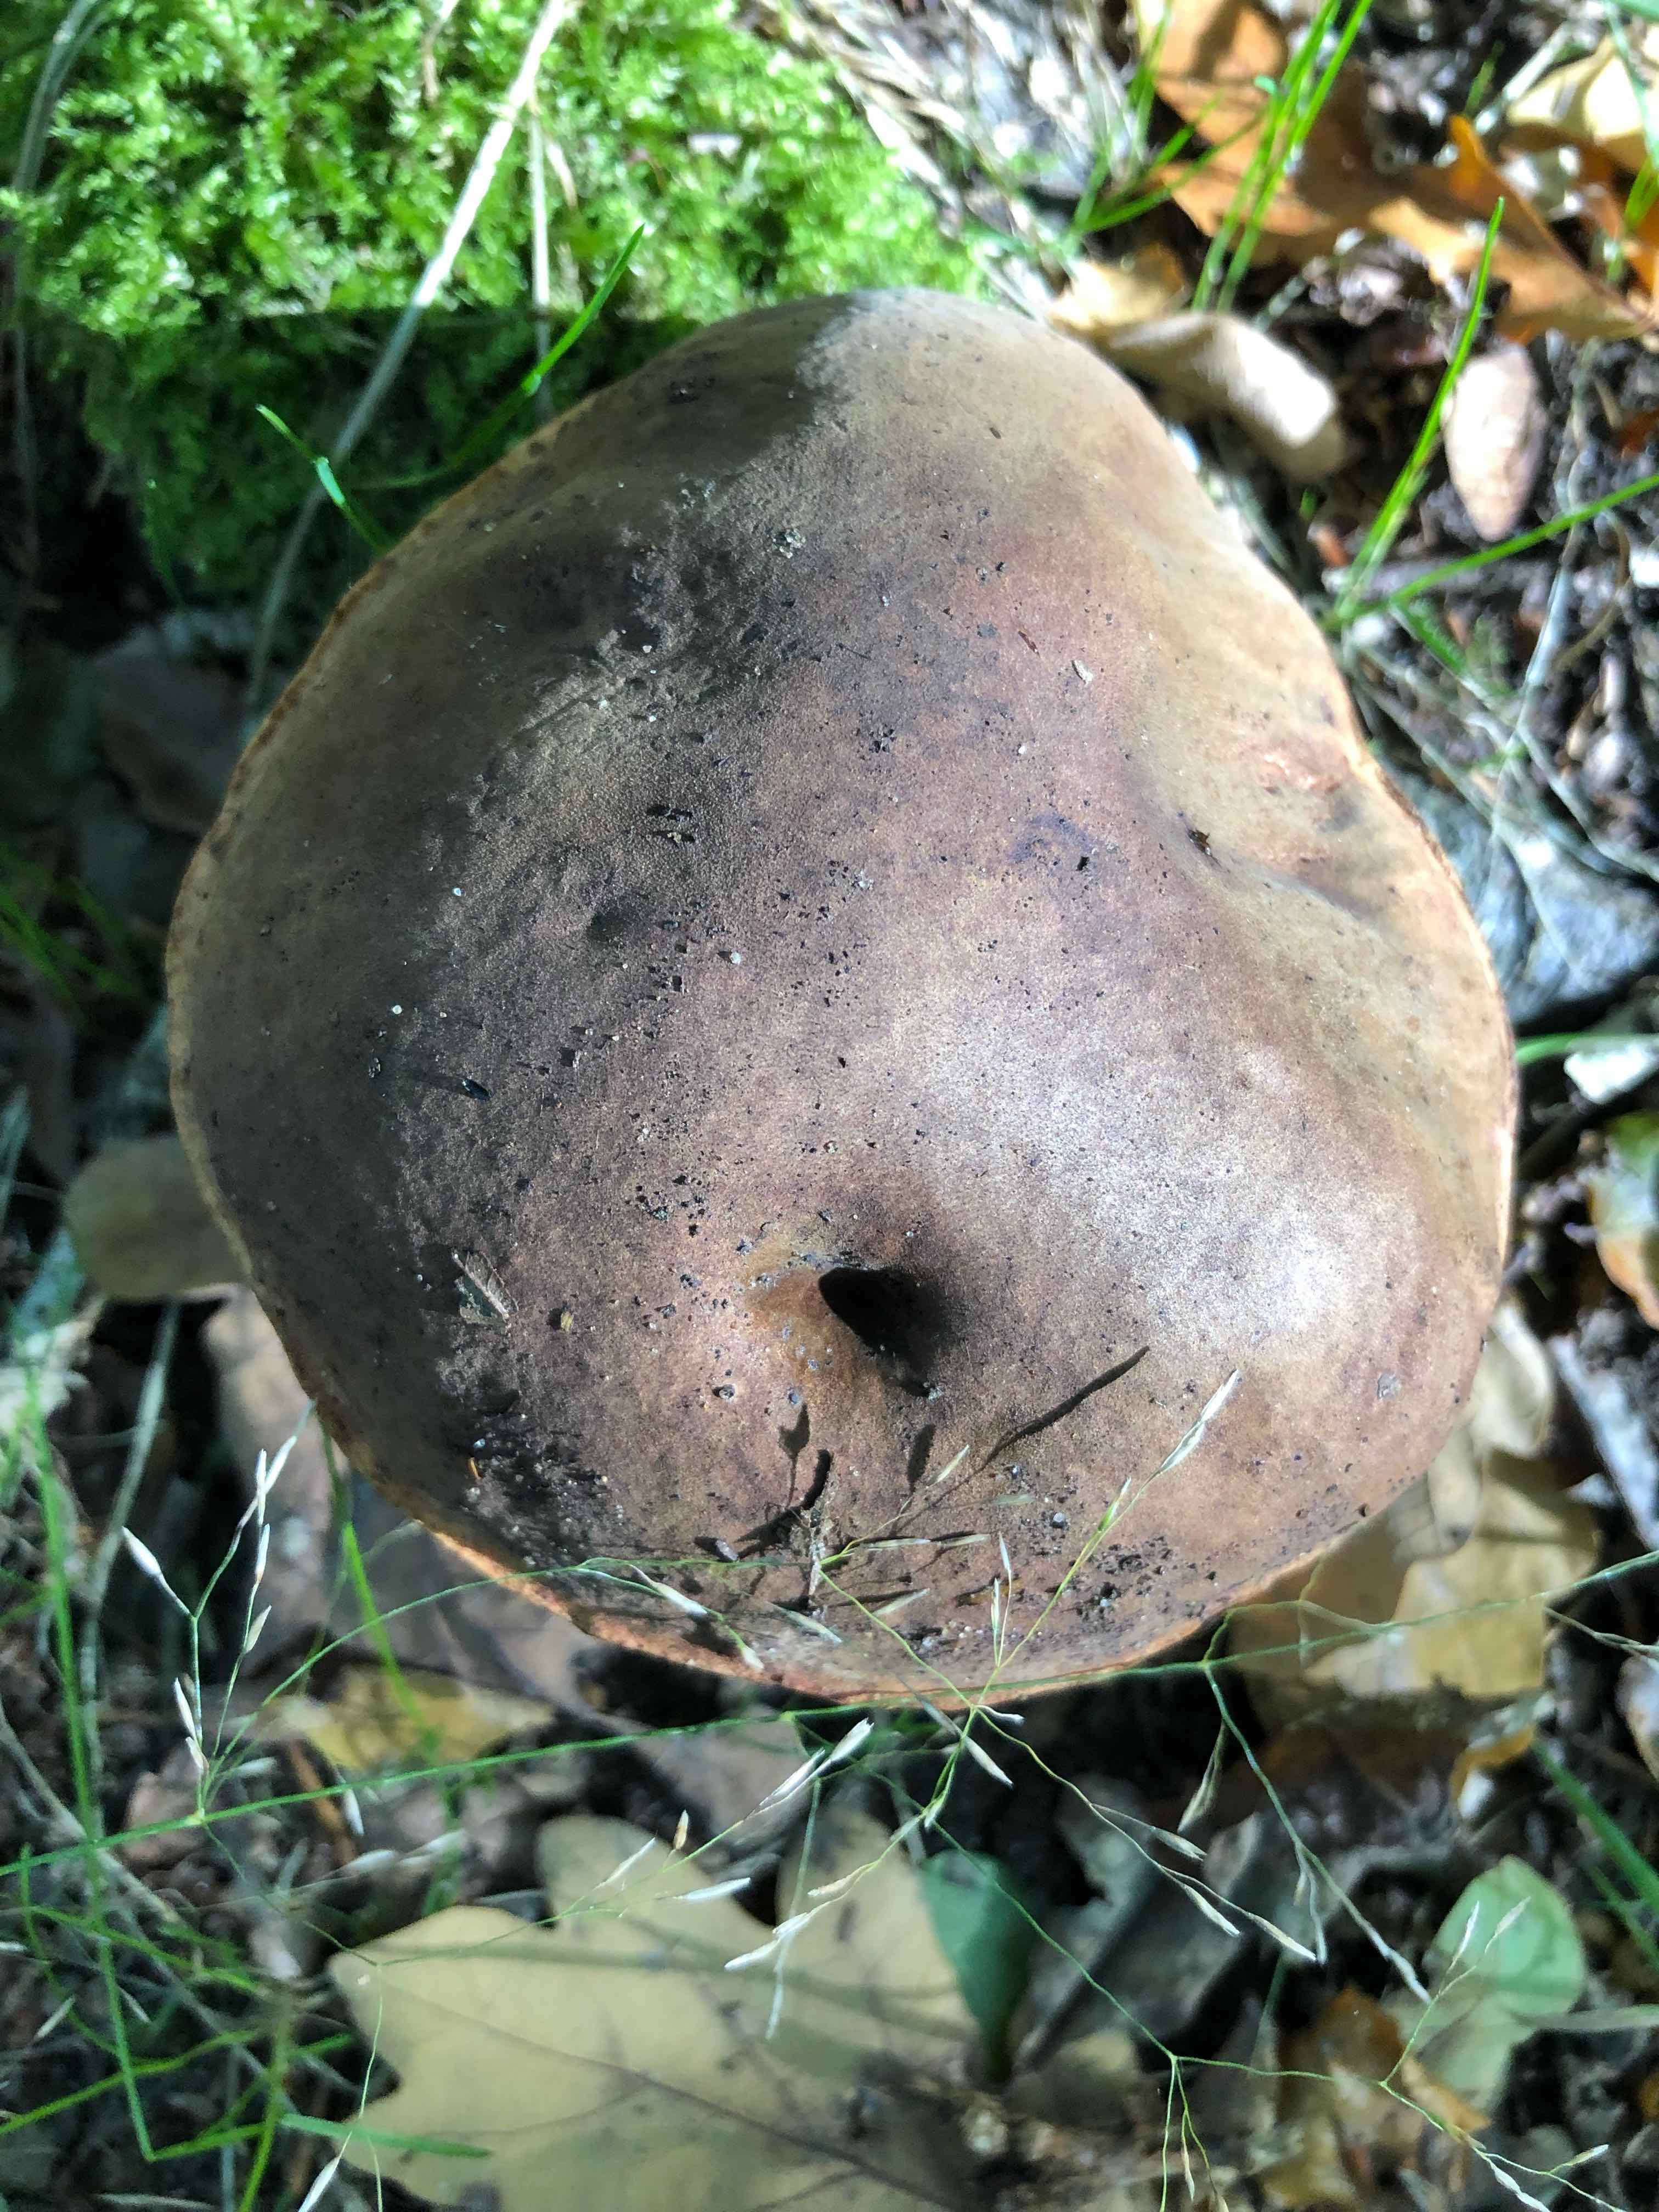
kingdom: Fungi
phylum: Basidiomycota
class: Agaricomycetes
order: Boletales
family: Boletaceae
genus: Neoboletus
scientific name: Neoboletus erythropus
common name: punktstokket indigorørhat
